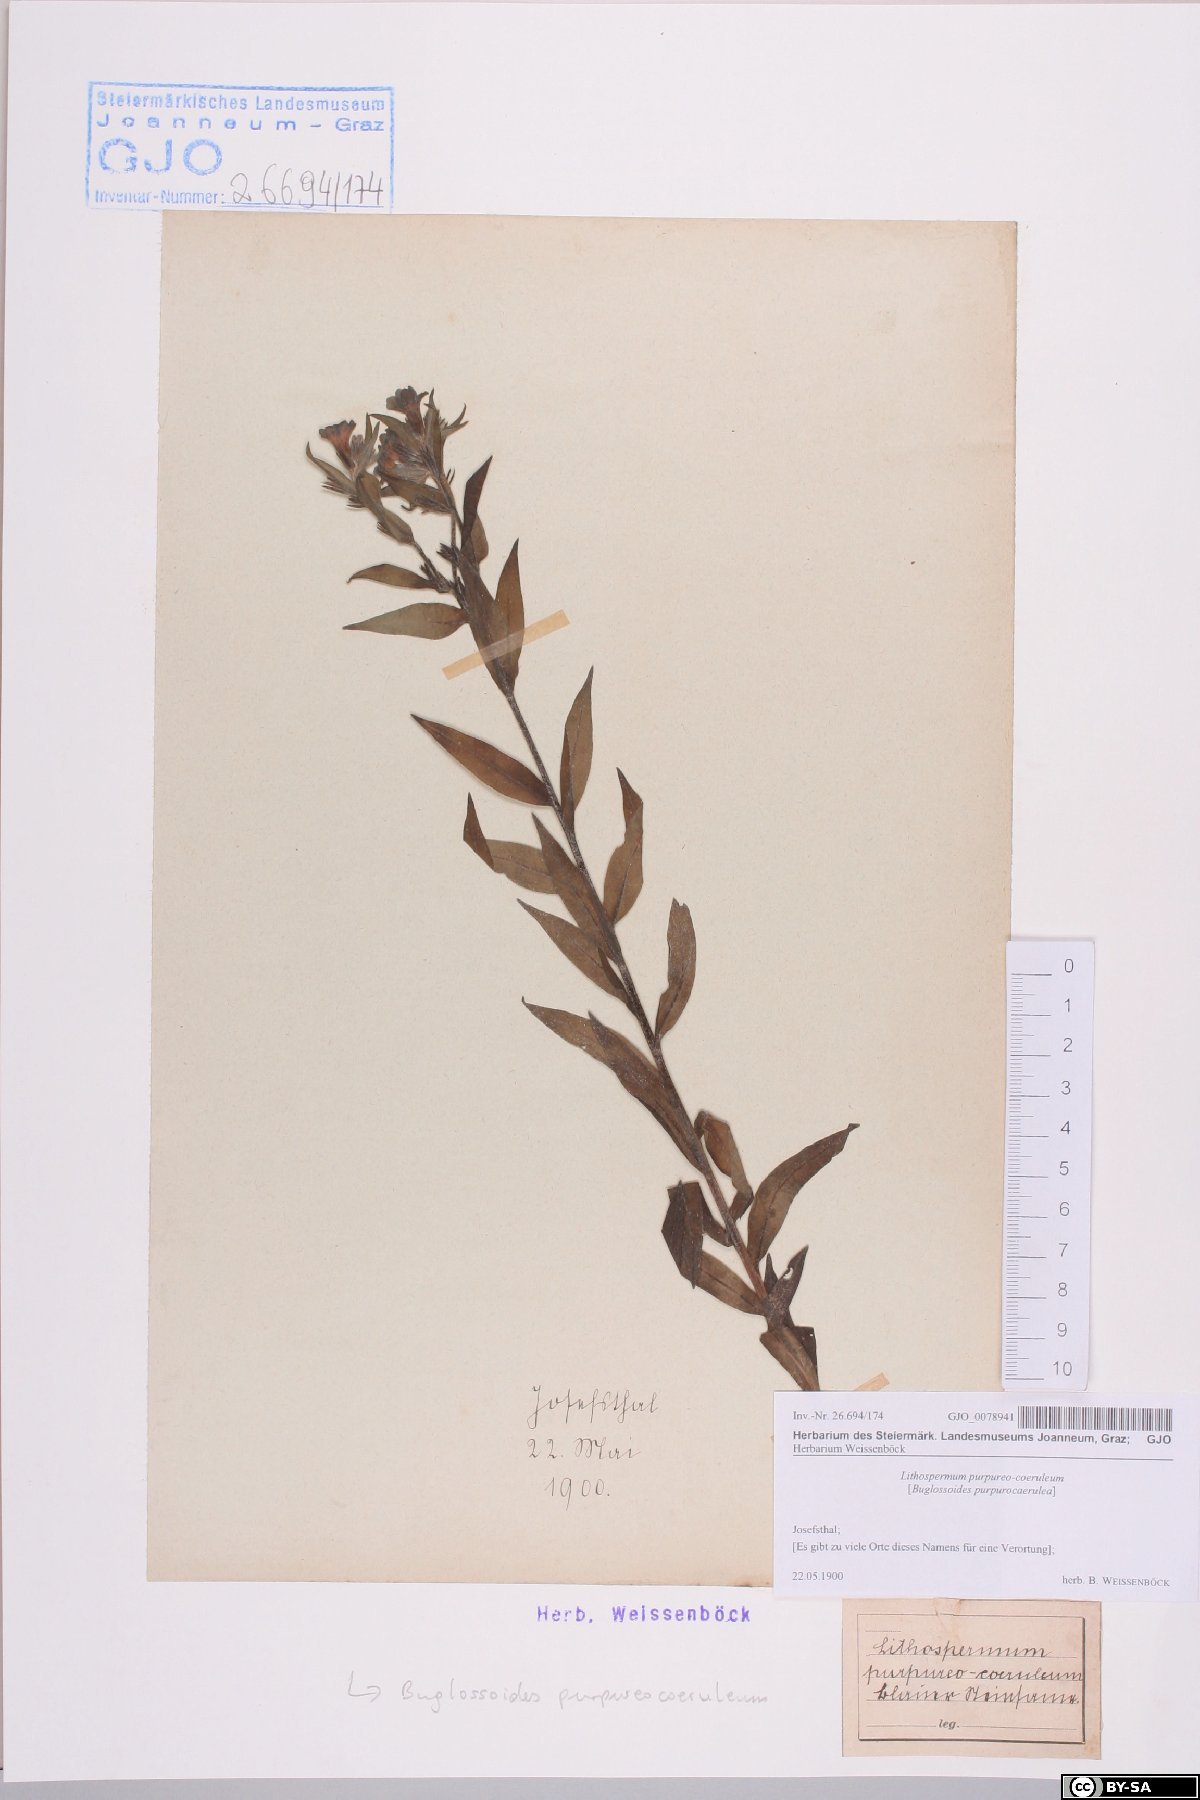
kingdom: Plantae
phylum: Tracheophyta
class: Magnoliopsida
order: Boraginales
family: Boraginaceae
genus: Aegonychon
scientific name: Aegonychon purpurocaeruleum
